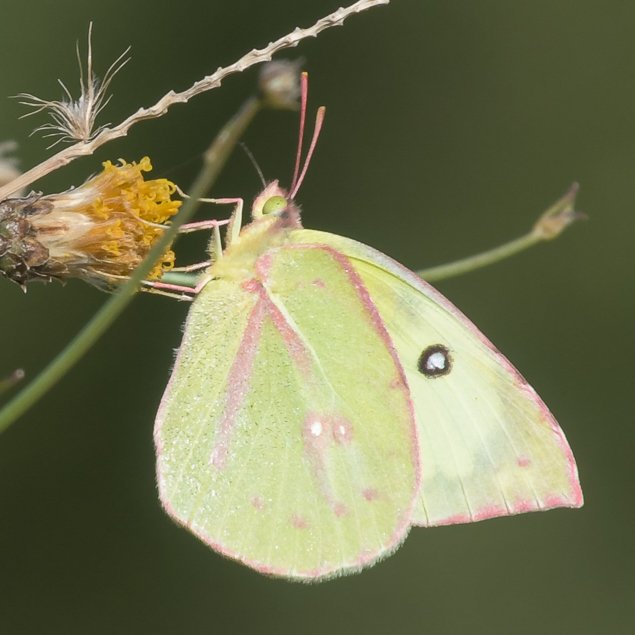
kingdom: Animalia
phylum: Arthropoda
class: Insecta
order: Lepidoptera
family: Pieridae
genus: Zerene
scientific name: Zerene cesonia
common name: Southern Dogface
